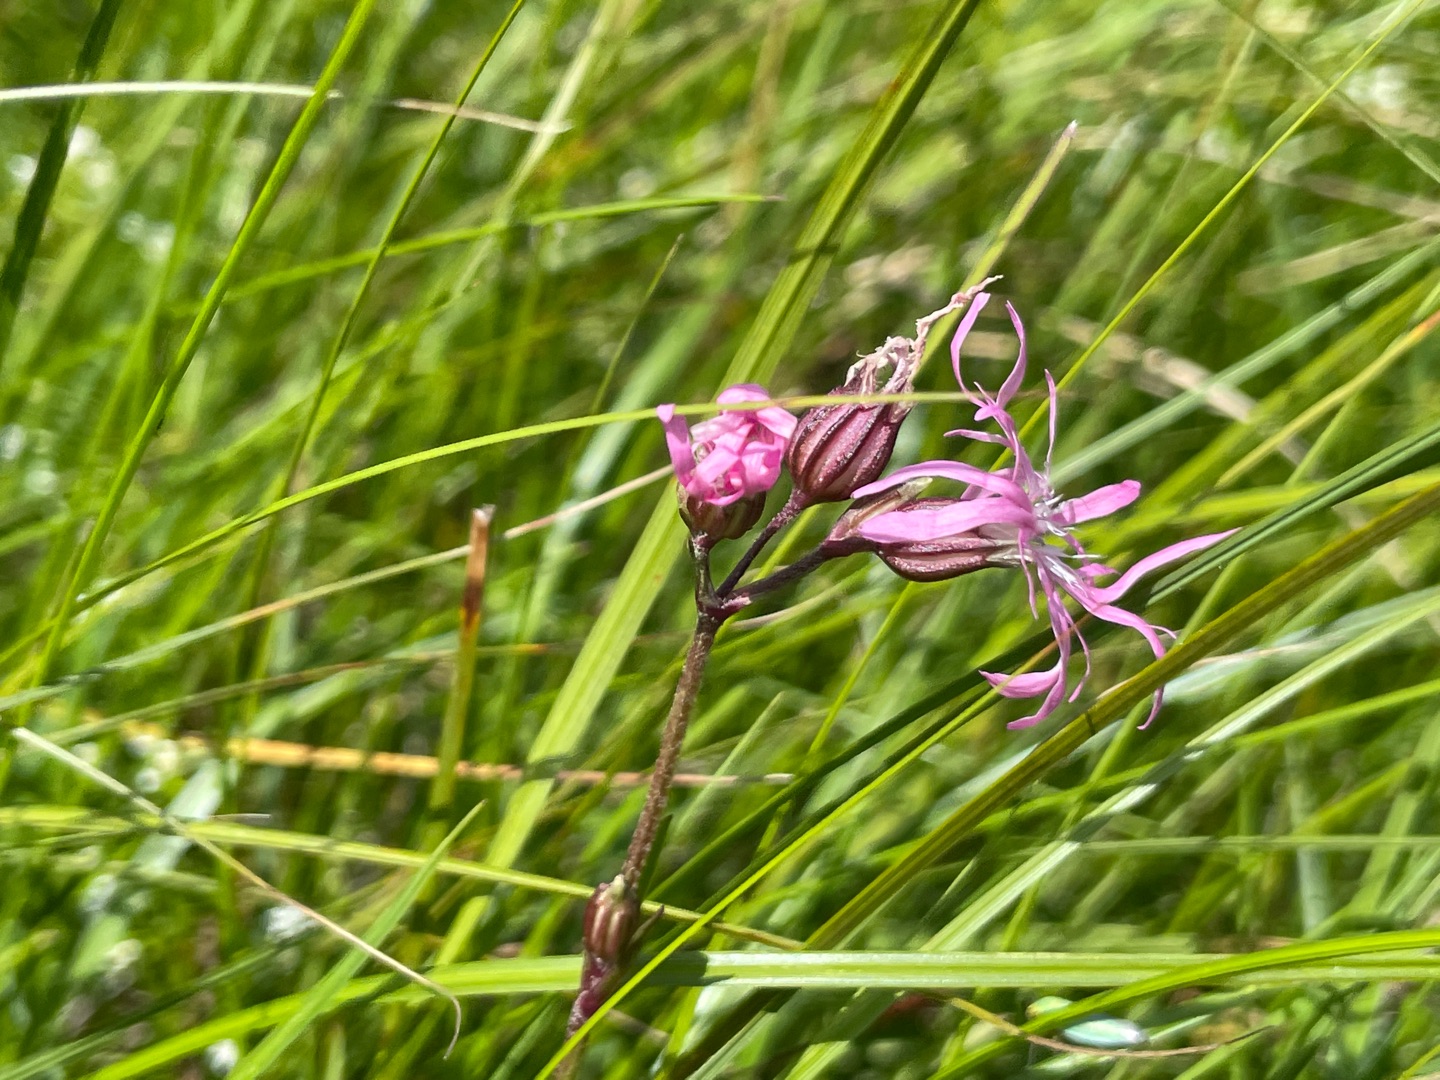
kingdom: Plantae
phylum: Tracheophyta
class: Magnoliopsida
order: Caryophyllales
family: Caryophyllaceae
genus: Silene
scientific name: Silene flos-cuculi
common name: Trævlekrone
